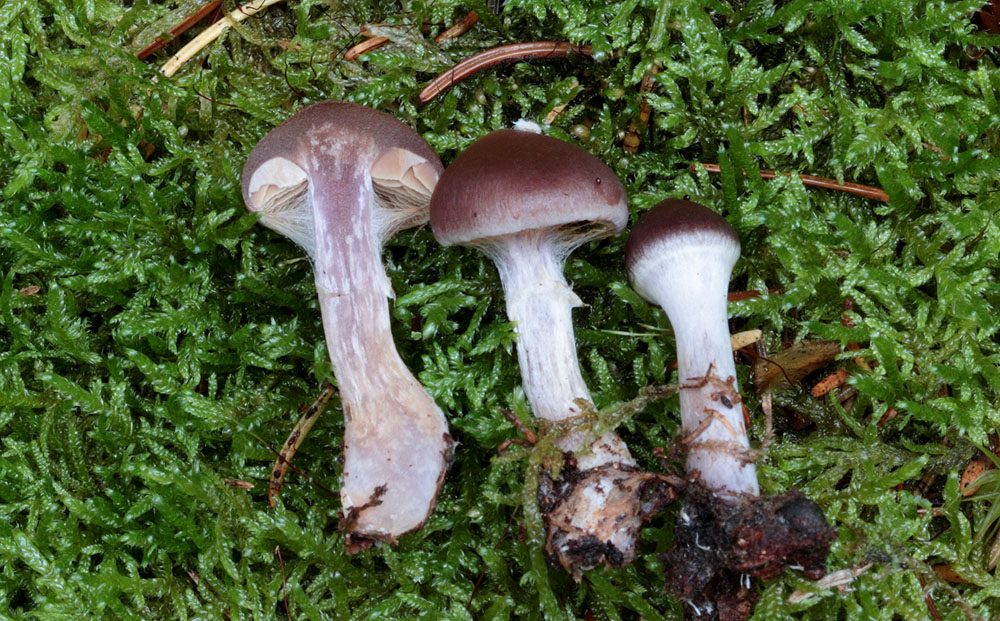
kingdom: Fungi
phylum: Basidiomycota
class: Agaricomycetes
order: Agaricales
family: Cortinariaceae
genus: Cortinarius
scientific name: Cortinarius kauffmanianus
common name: plantage-slørhat
